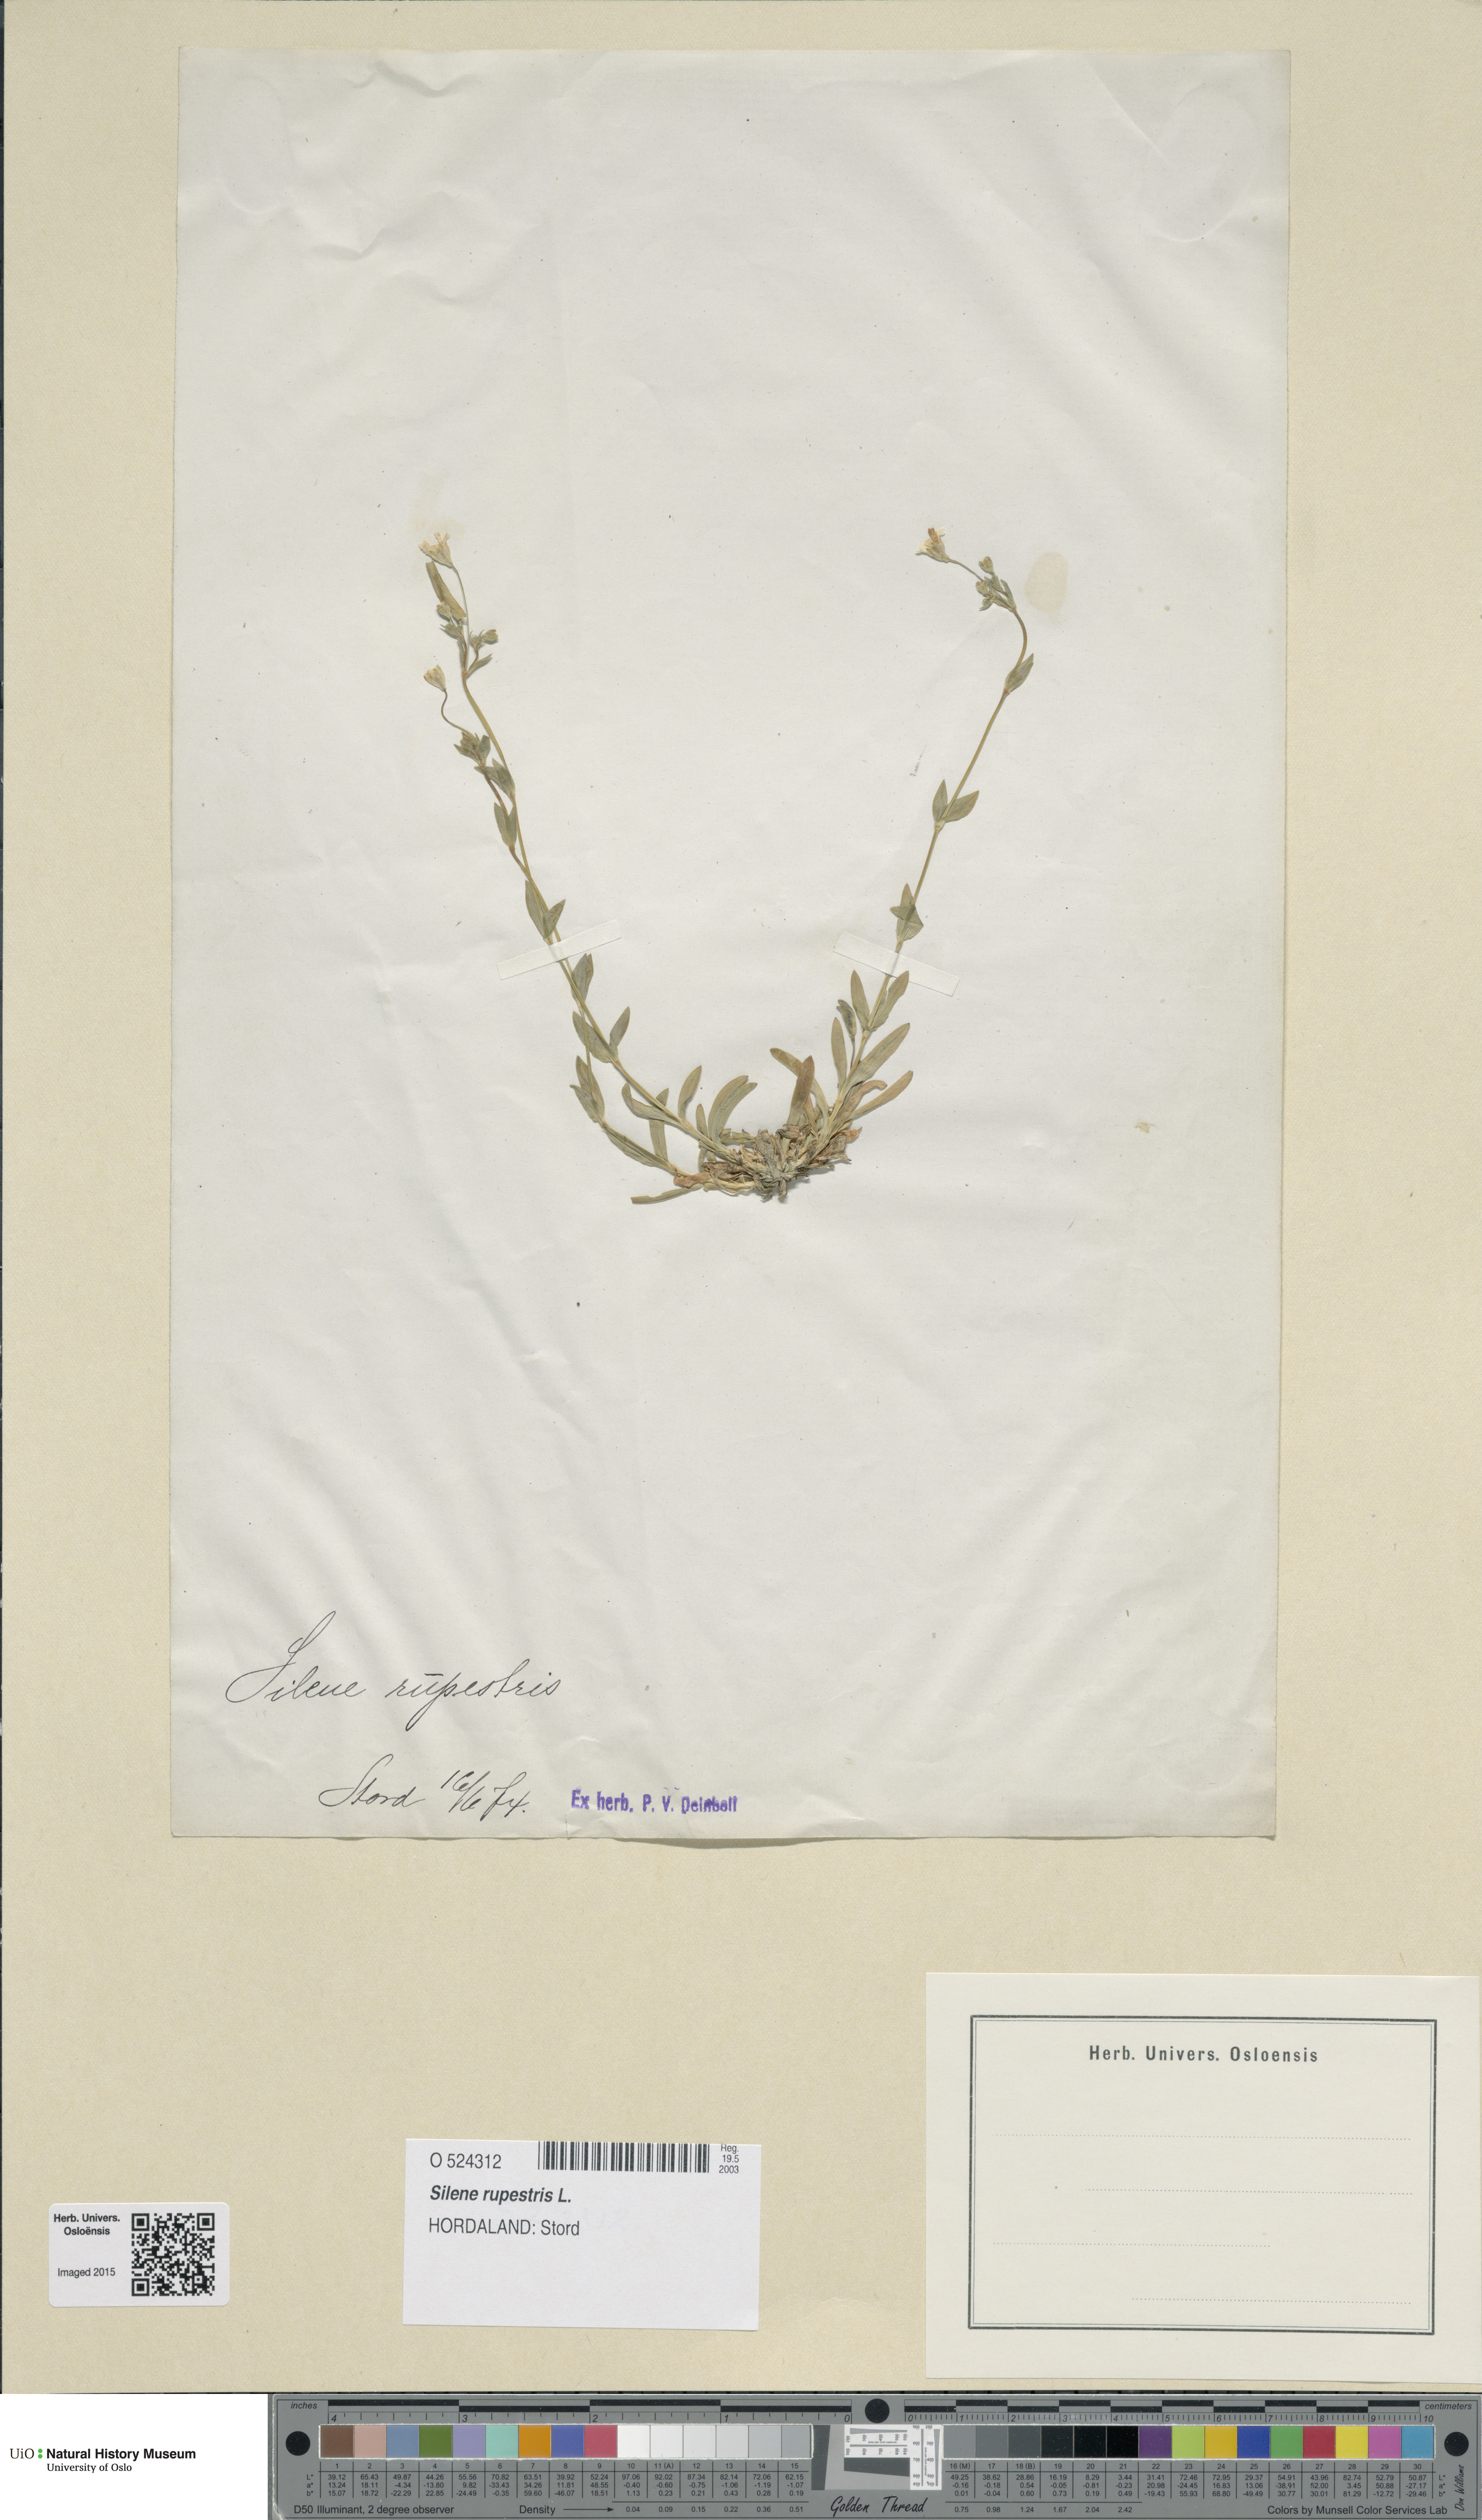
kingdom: Plantae
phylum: Tracheophyta
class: Magnoliopsida
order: Caryophyllales
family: Caryophyllaceae
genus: Atocion
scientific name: Atocion rupestre
